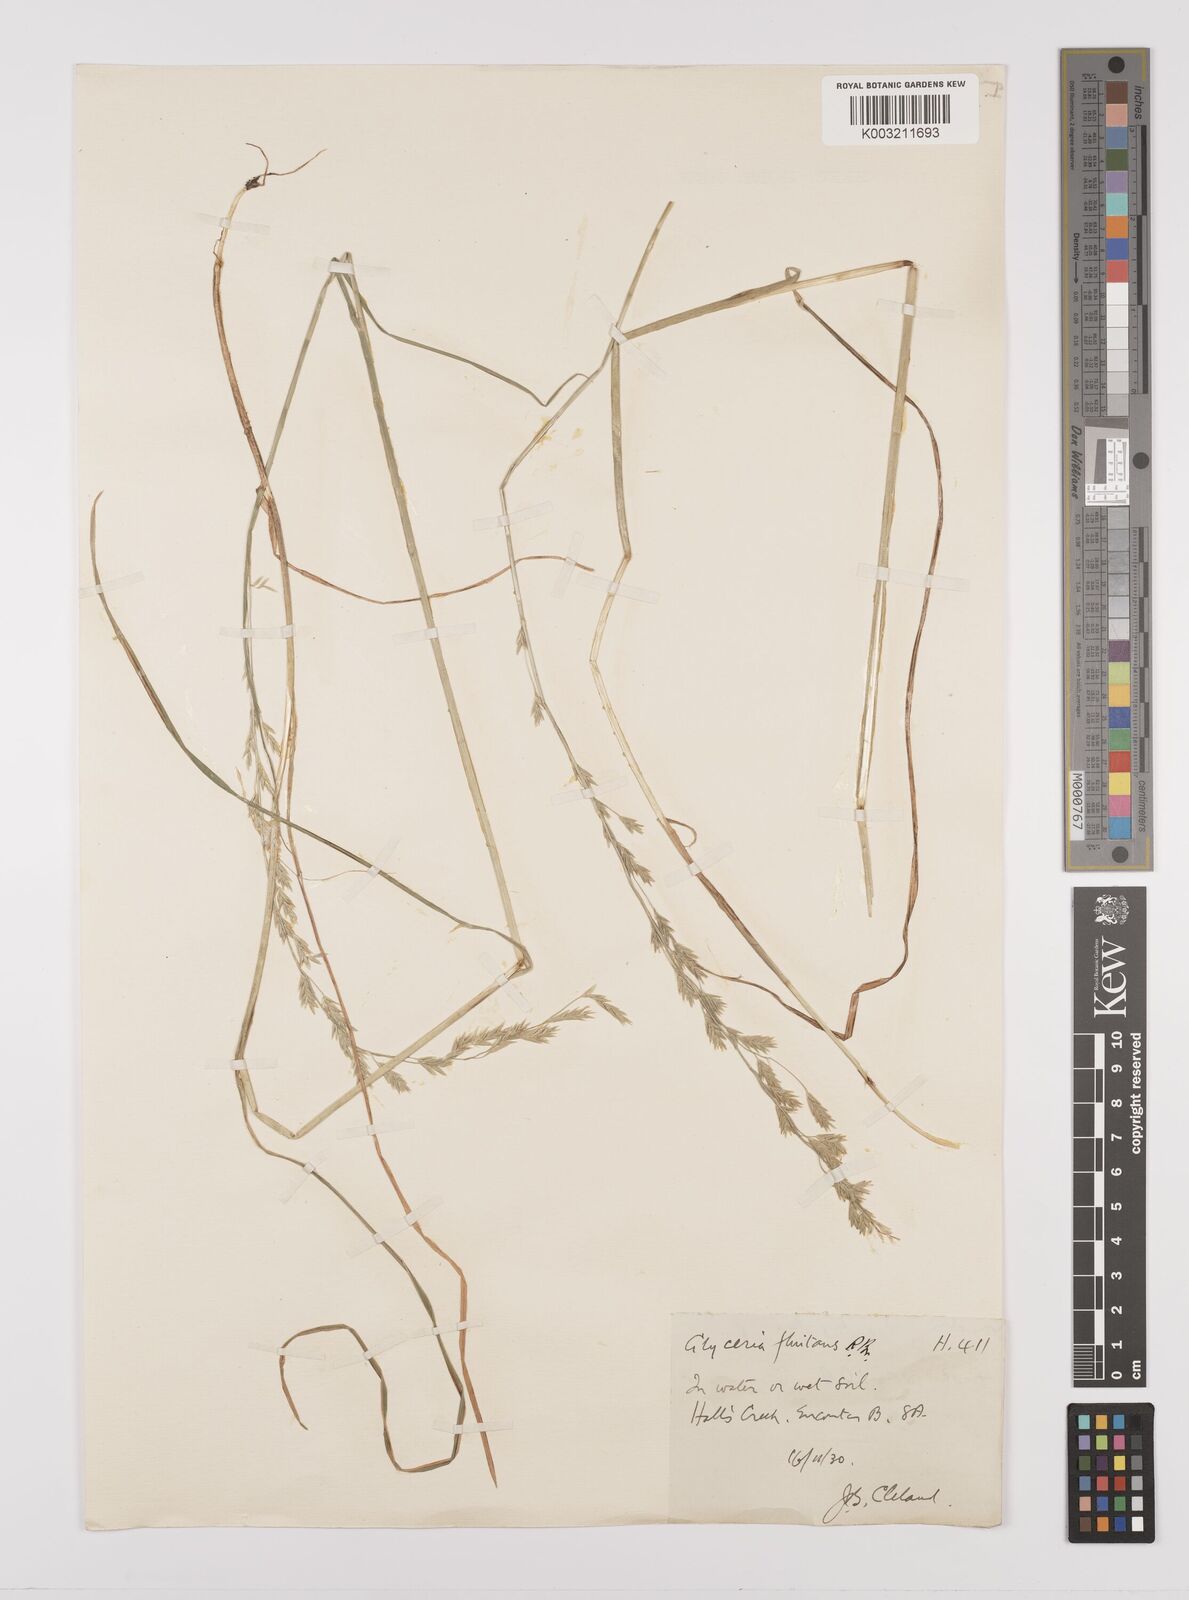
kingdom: Plantae
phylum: Tracheophyta
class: Liliopsida
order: Poales
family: Poaceae
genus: Glyceria
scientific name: Glyceria
